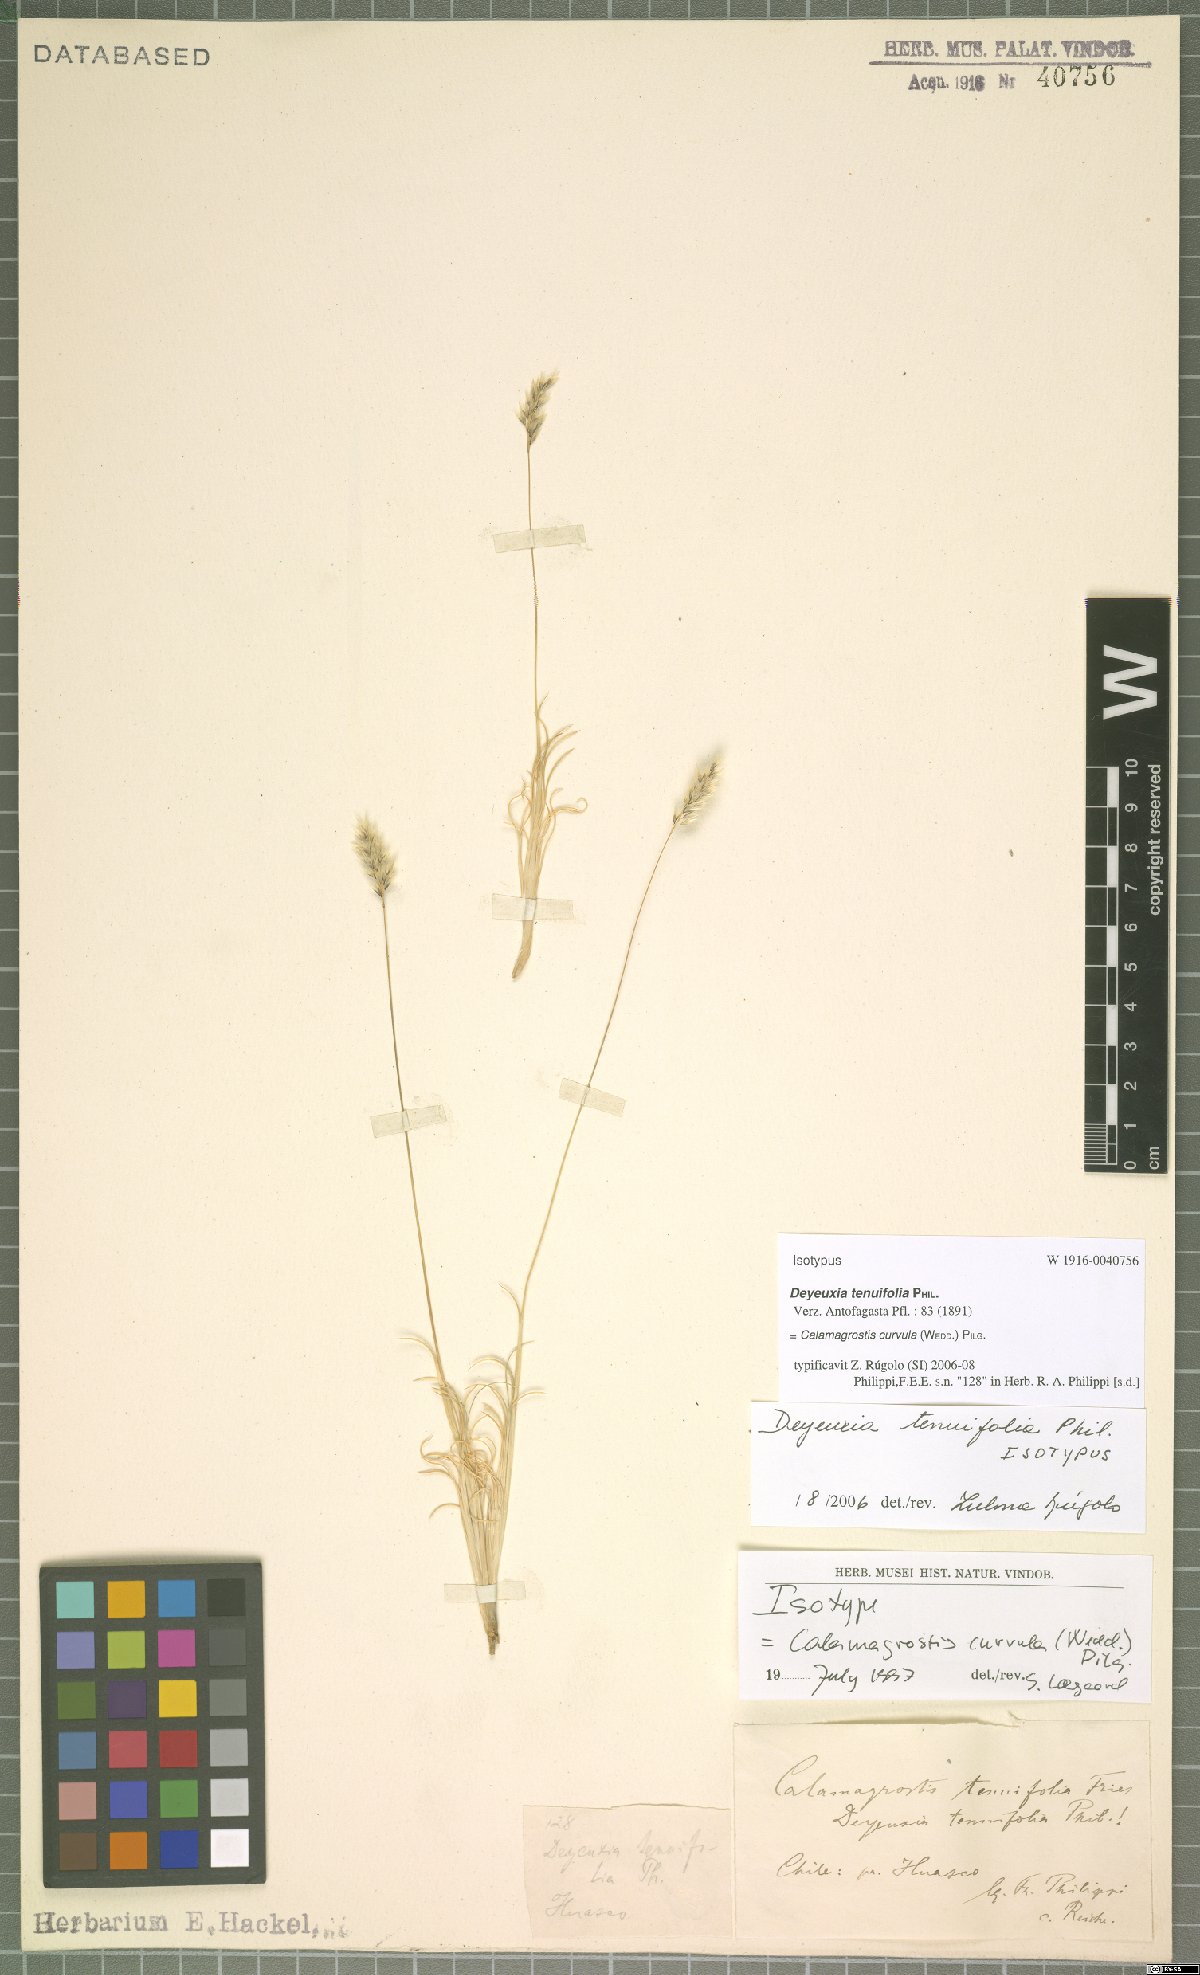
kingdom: Plantae
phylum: Tracheophyta
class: Liliopsida
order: Poales
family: Poaceae
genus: Cinnagrostis
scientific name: Cinnagrostis curvula
